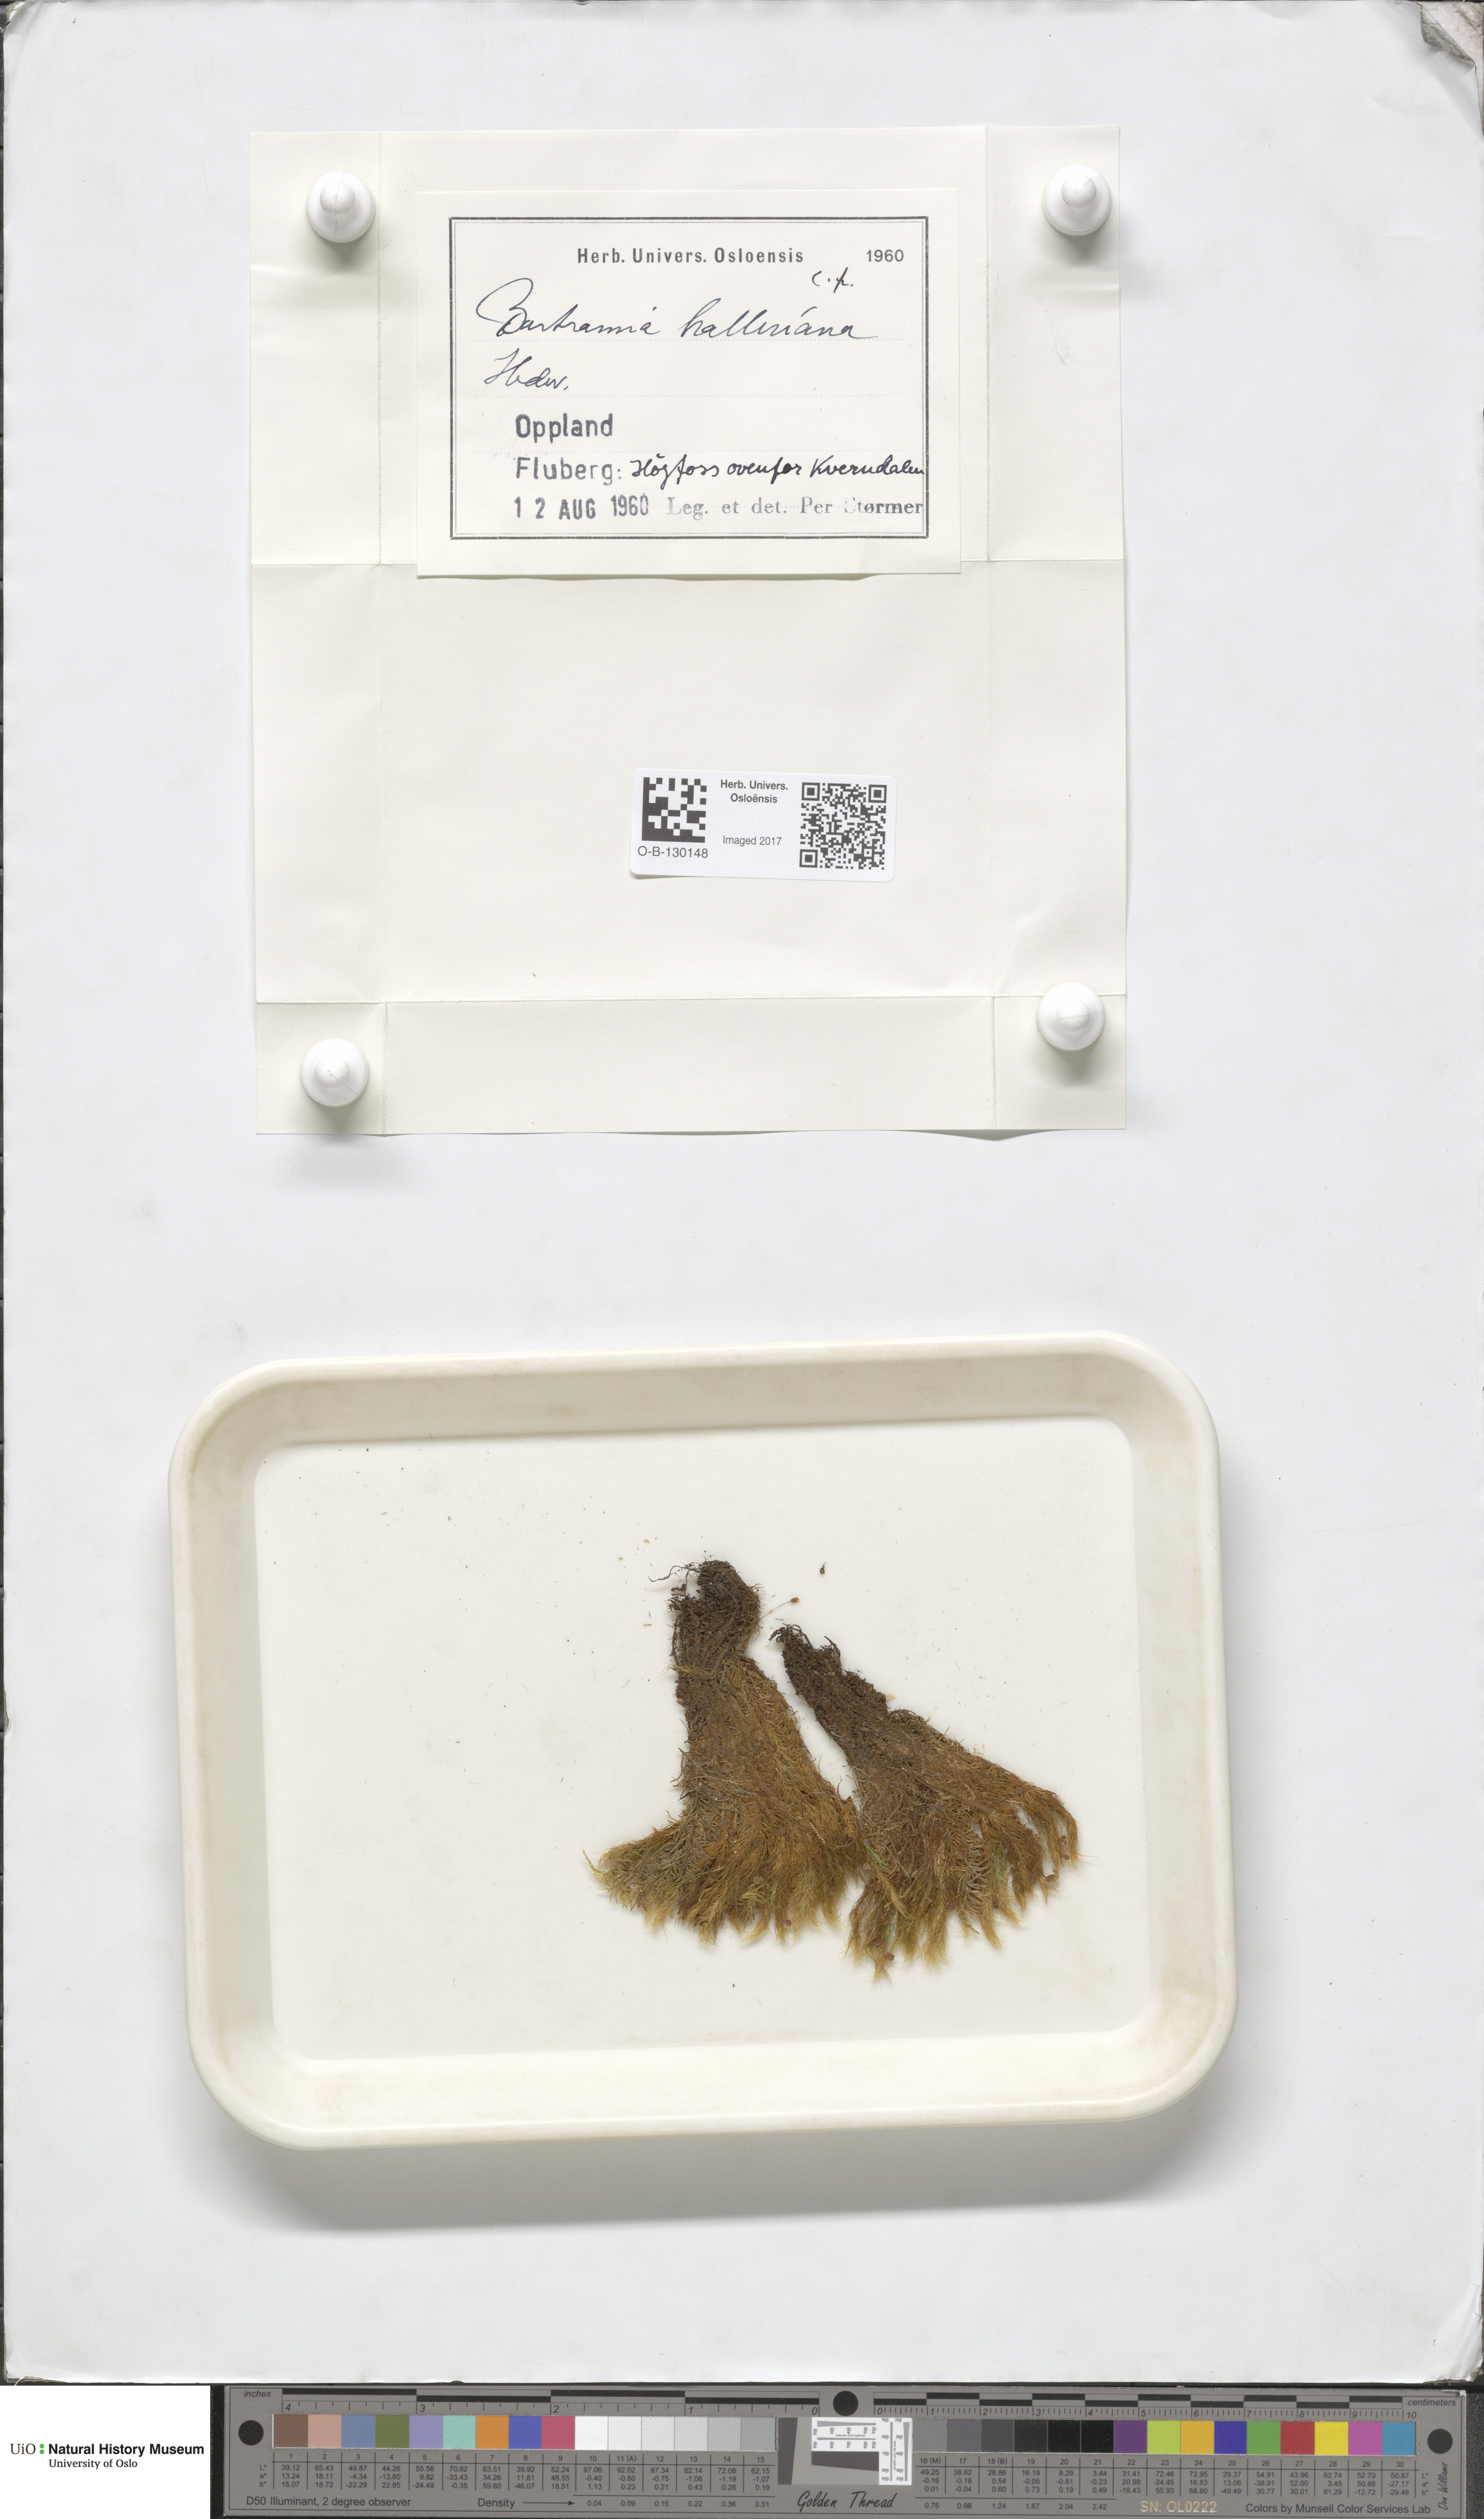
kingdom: Plantae
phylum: Bryophyta
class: Bryopsida
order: Bartramiales
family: Bartramiaceae
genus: Bartramia
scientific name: Bartramia halleriana
